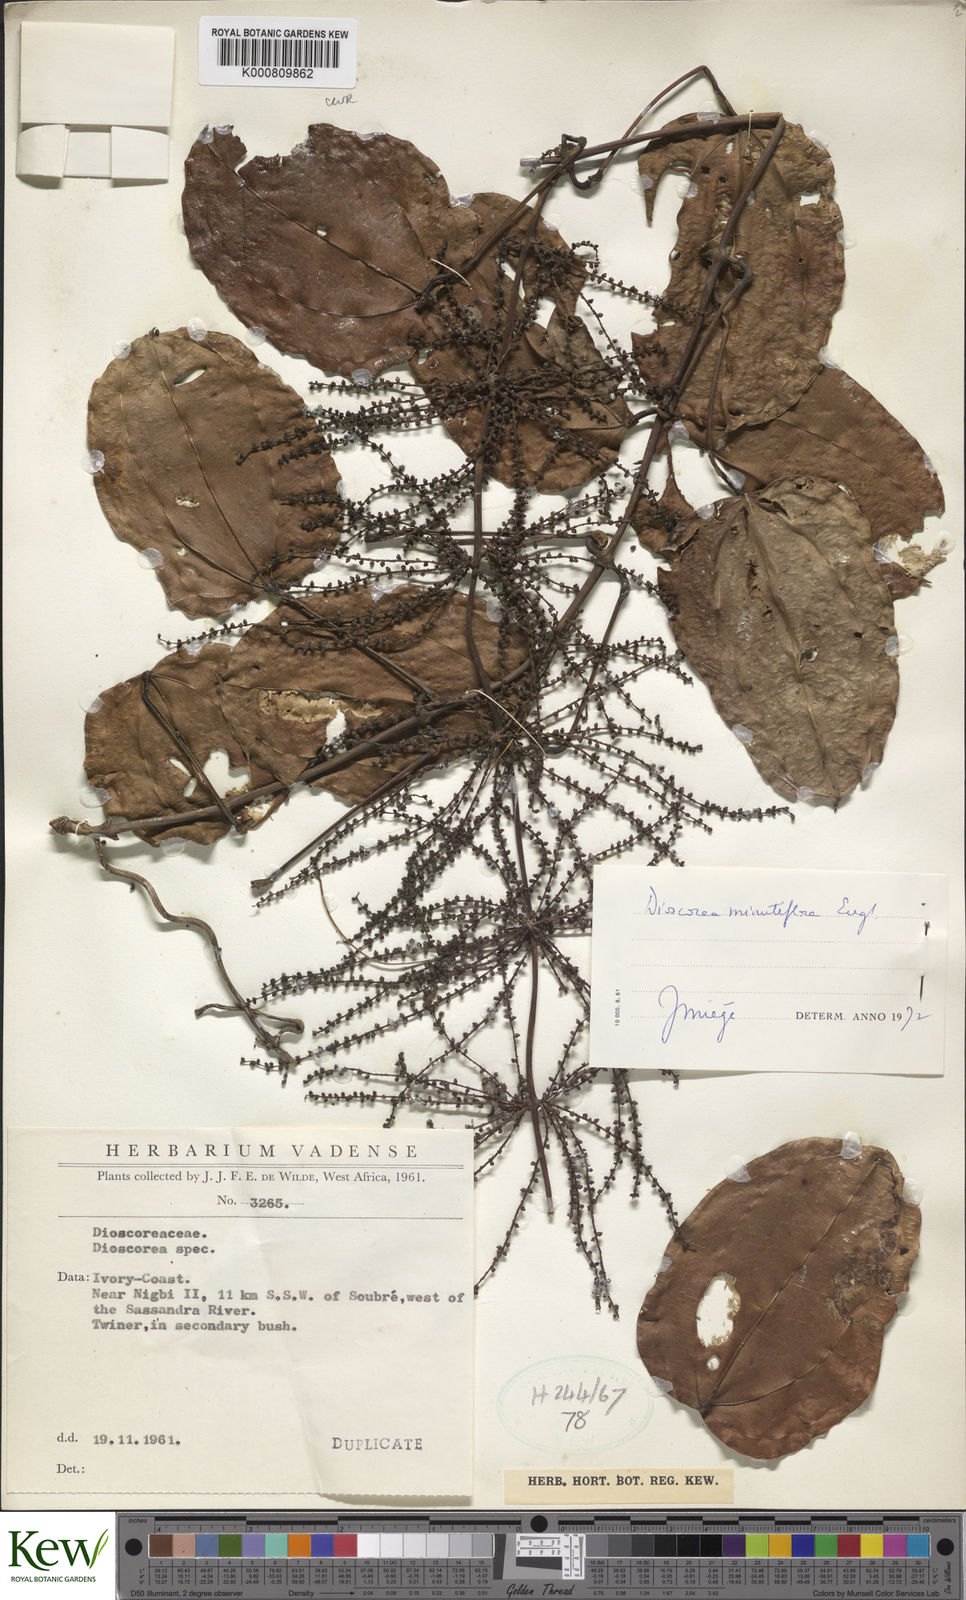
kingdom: Plantae
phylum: Tracheophyta
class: Liliopsida
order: Dioscoreales
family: Dioscoreaceae
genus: Dioscorea
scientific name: Dioscorea minutiflora
